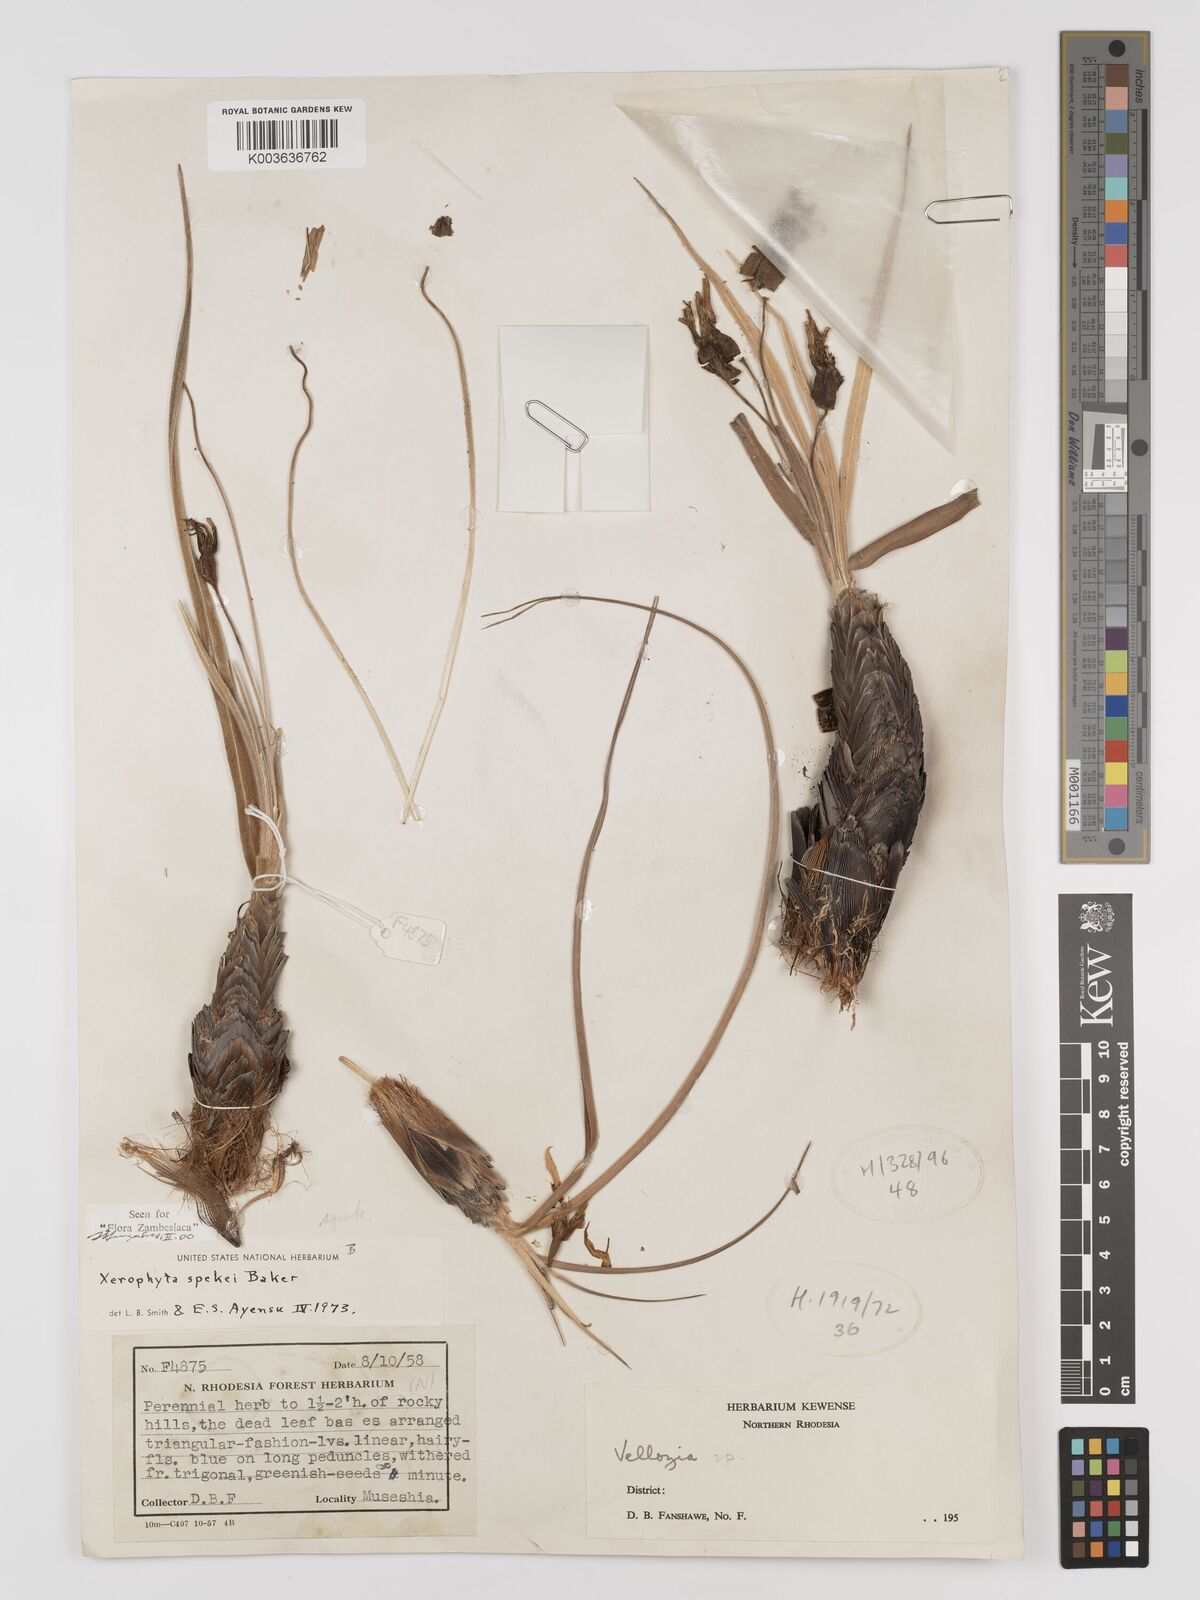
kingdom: Plantae
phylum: Tracheophyta
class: Liliopsida
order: Pandanales
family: Velloziaceae
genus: Xerophyta
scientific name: Xerophyta spekei
